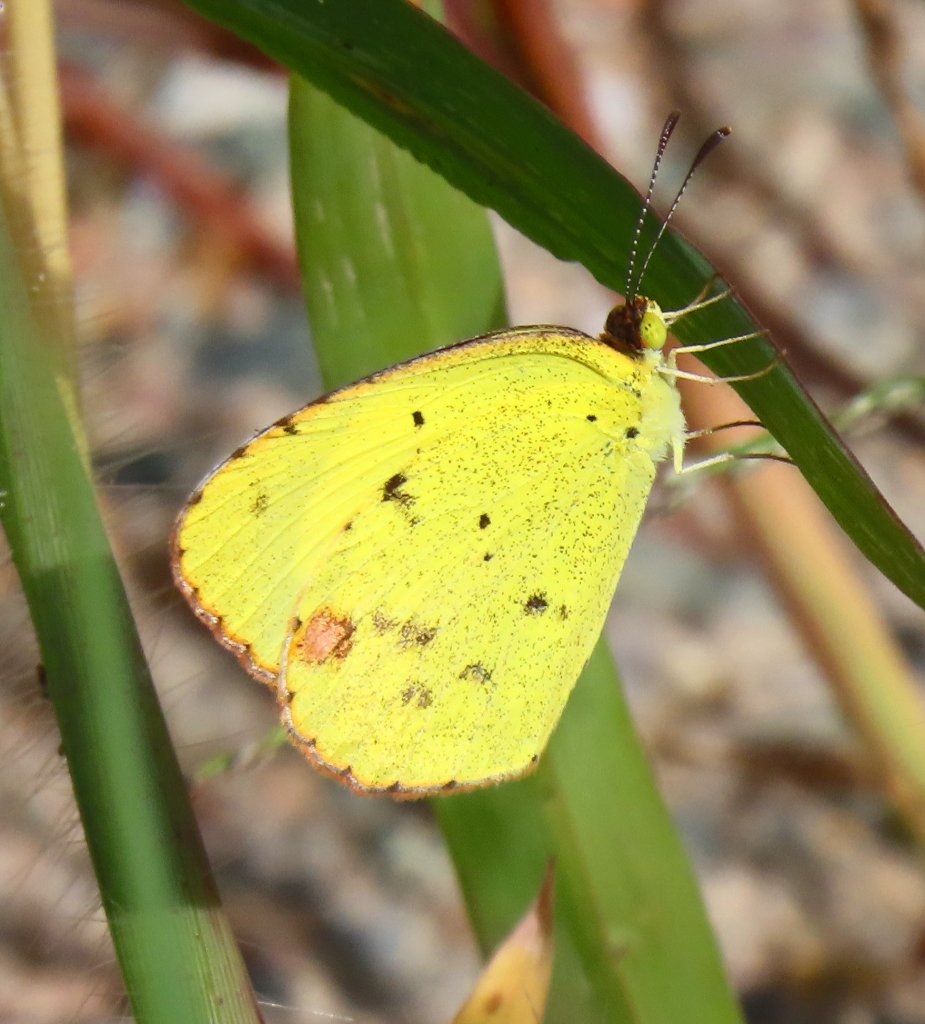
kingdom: Animalia
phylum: Arthropoda
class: Insecta
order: Lepidoptera
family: Pieridae
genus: Pyrisitia
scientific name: Pyrisitia lisa
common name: Little Yellow
